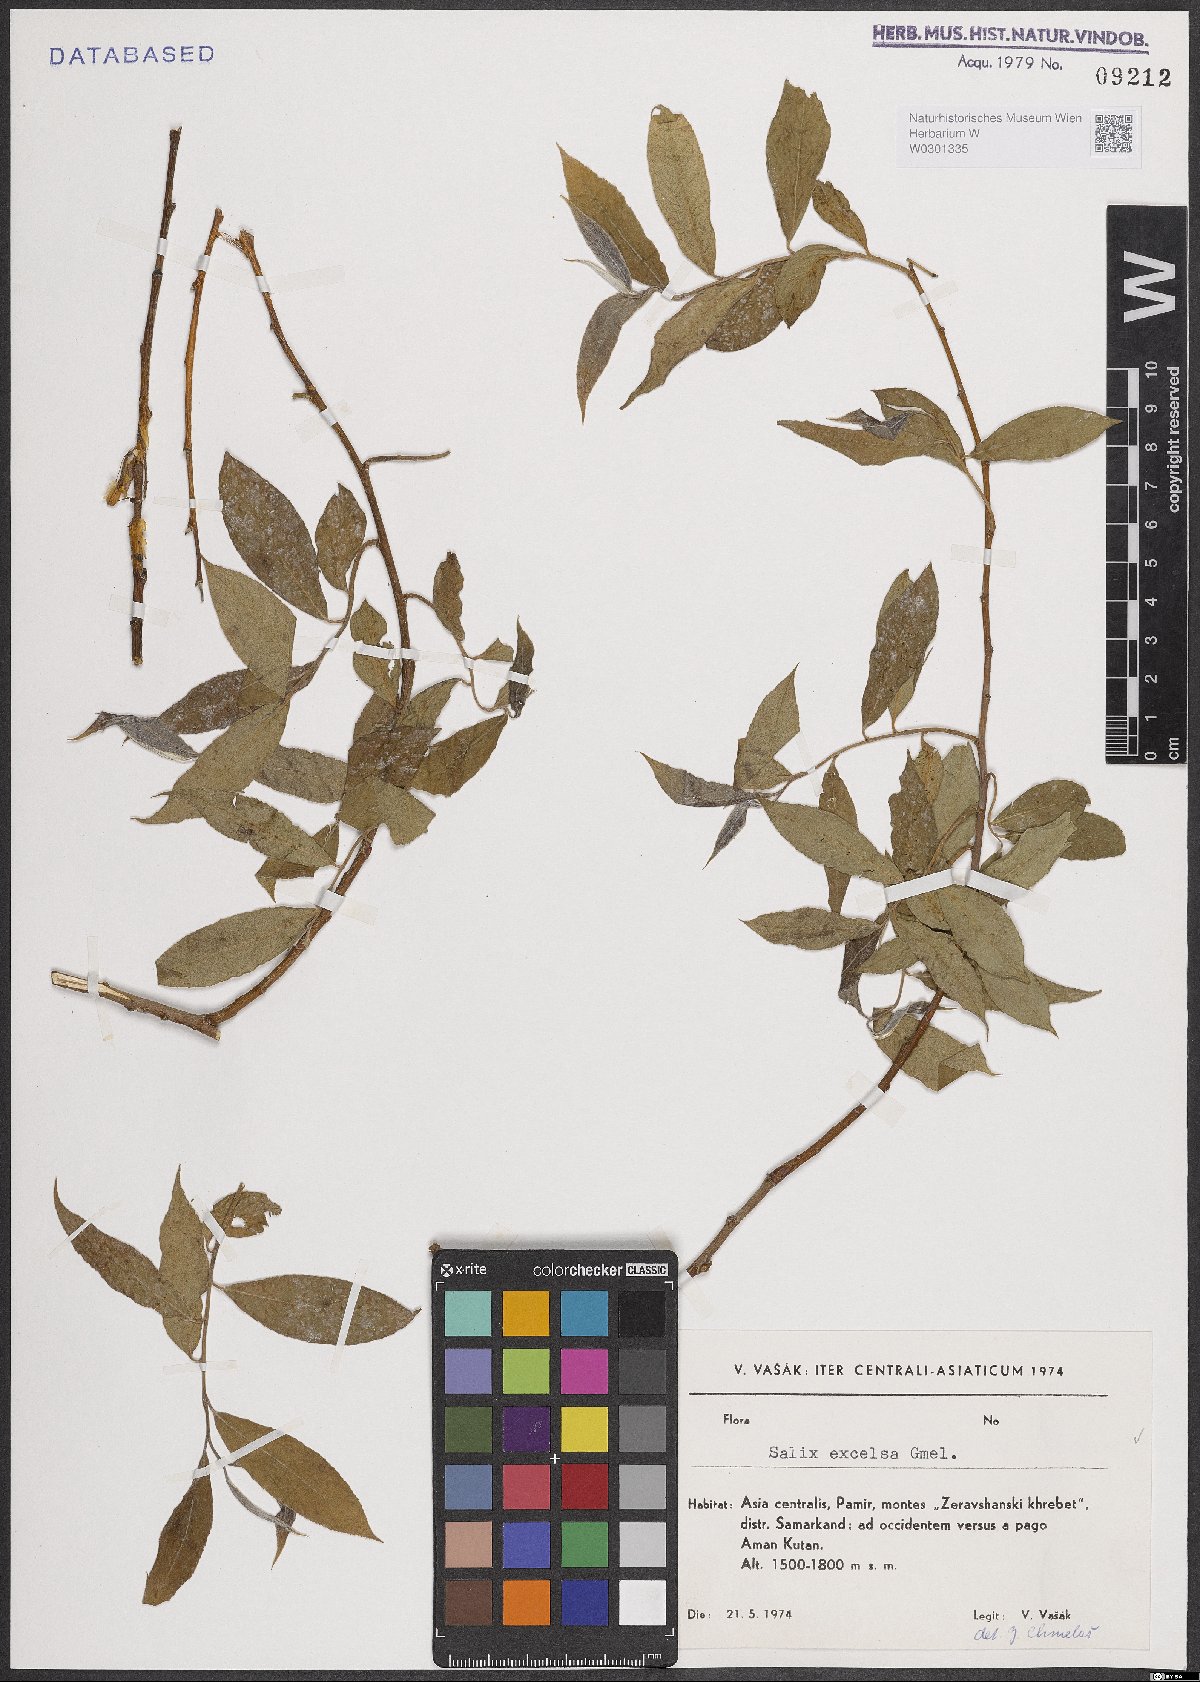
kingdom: Plantae
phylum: Tracheophyta
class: Magnoliopsida
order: Malpighiales
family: Salicaceae
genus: Salix
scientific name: Salix myrsinifolia
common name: Dark-leaved willow
